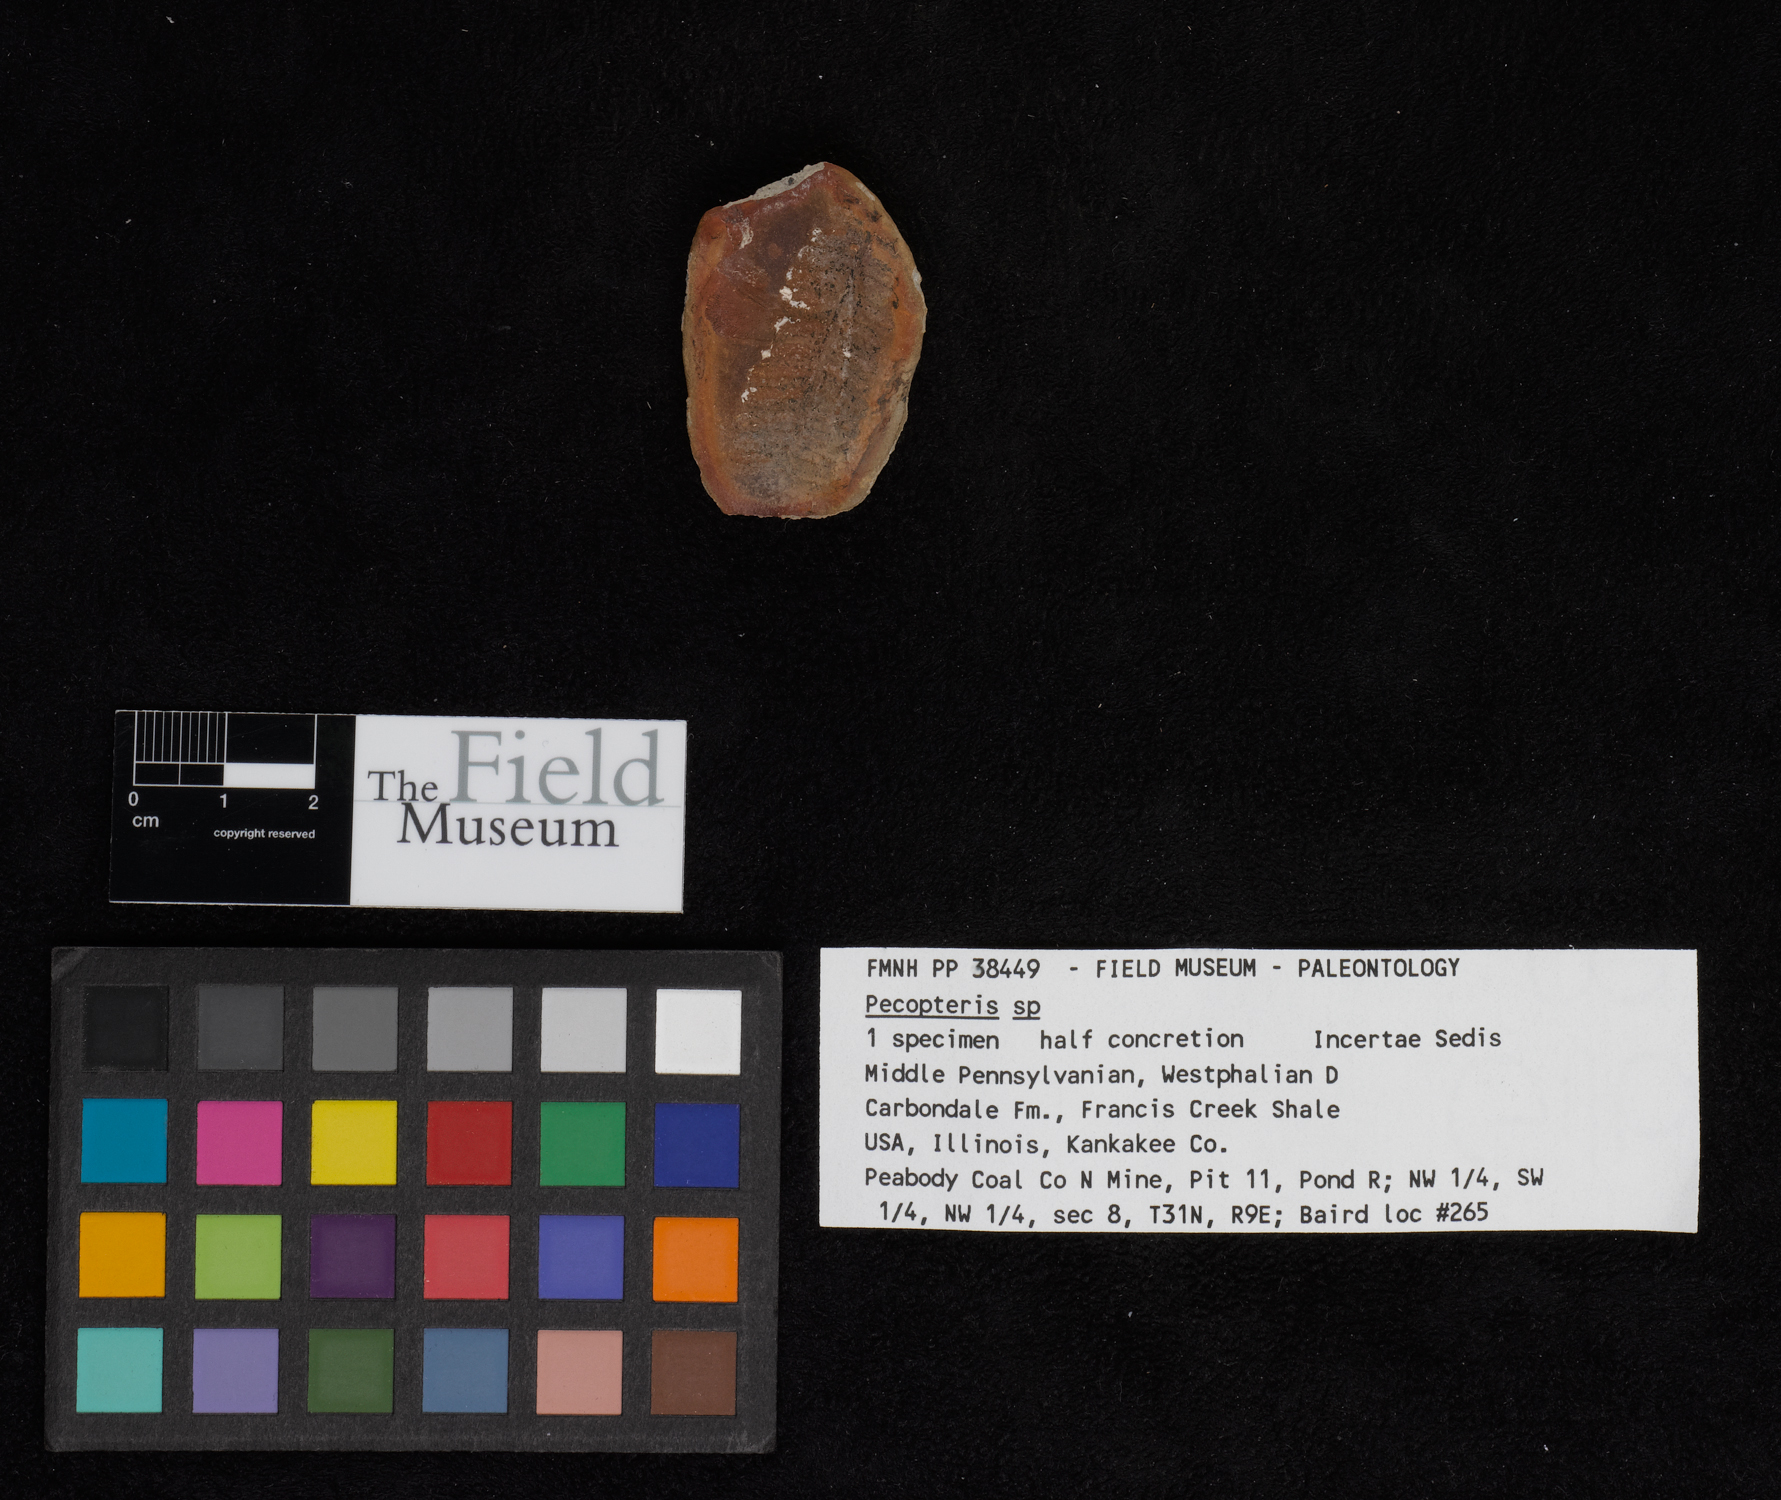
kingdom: Plantae
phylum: Tracheophyta
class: Polypodiopsida
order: Marattiales
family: Asterothecaceae
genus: Pecopteris
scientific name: Pecopteris
